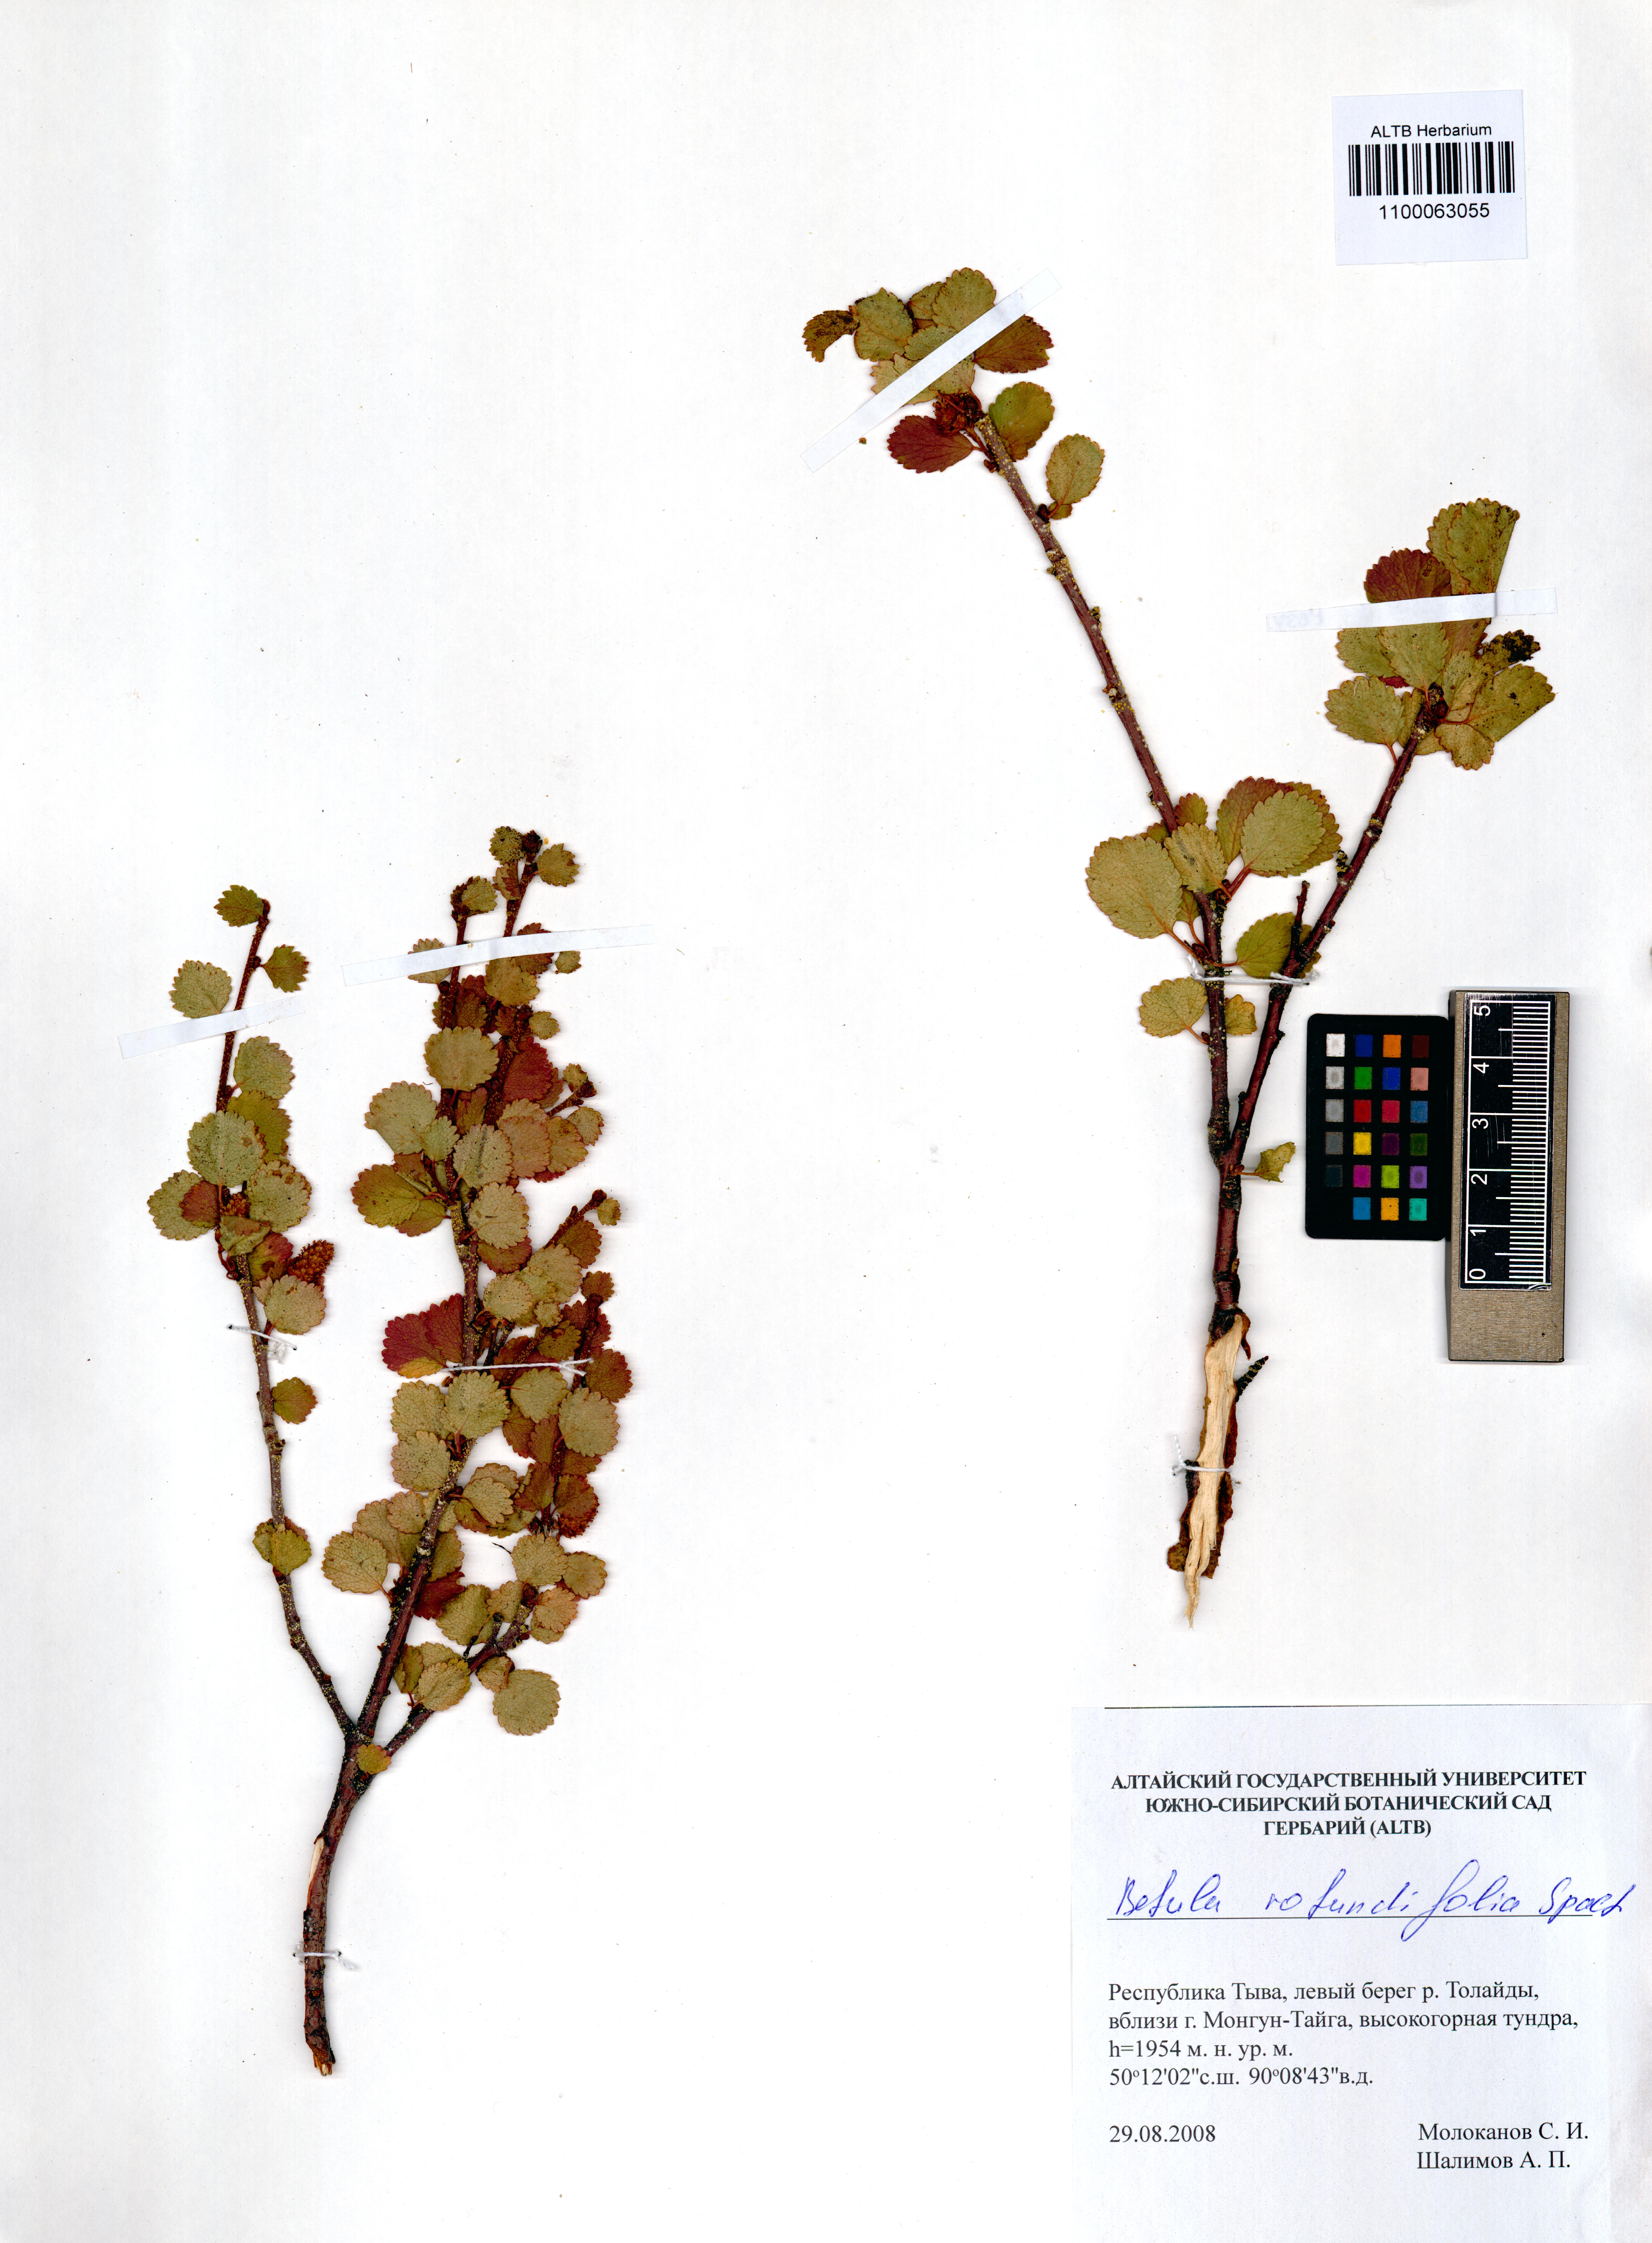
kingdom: Plantae
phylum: Tracheophyta
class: Magnoliopsida
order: Fagales
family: Betulaceae
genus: Betula
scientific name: Betula glandulosa
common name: Dwarf birch
